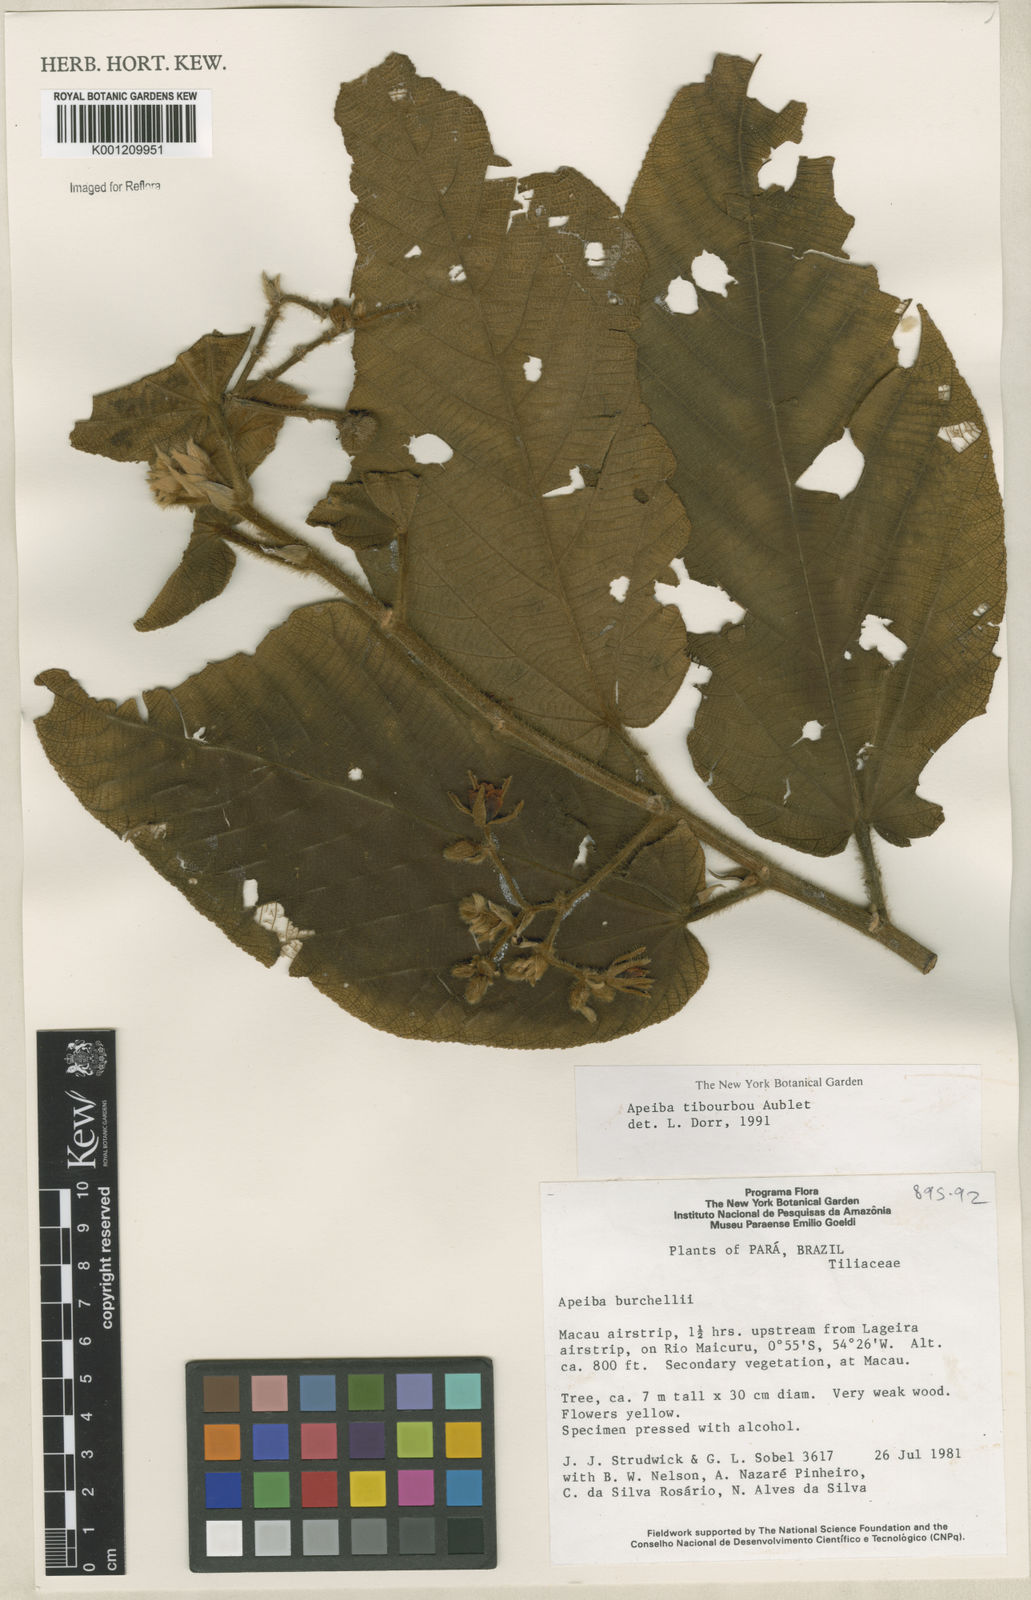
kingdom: Plantae
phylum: Tracheophyta
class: Magnoliopsida
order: Malvales
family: Malvaceae
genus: Apeiba
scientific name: Apeiba tibourbou
